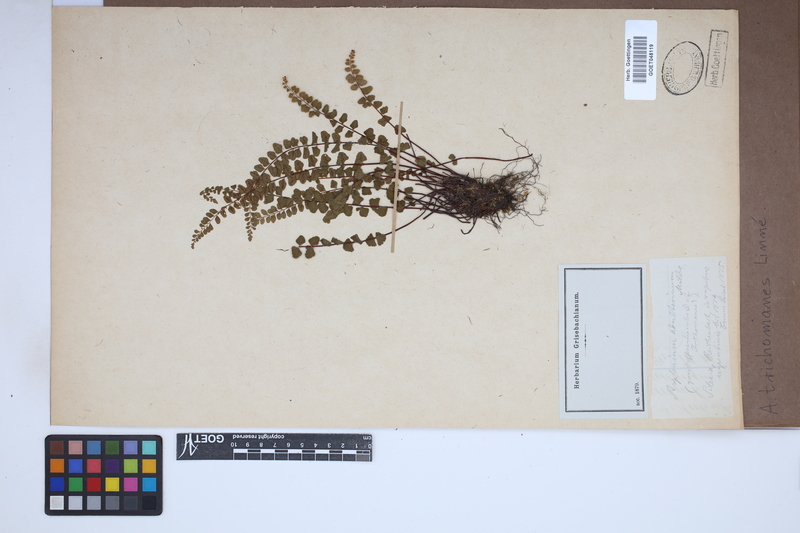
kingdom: Plantae
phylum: Tracheophyta
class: Polypodiopsida
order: Polypodiales
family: Aspleniaceae
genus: Asplenium
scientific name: Asplenium trichomanes
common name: Maidenhair spleenwort
